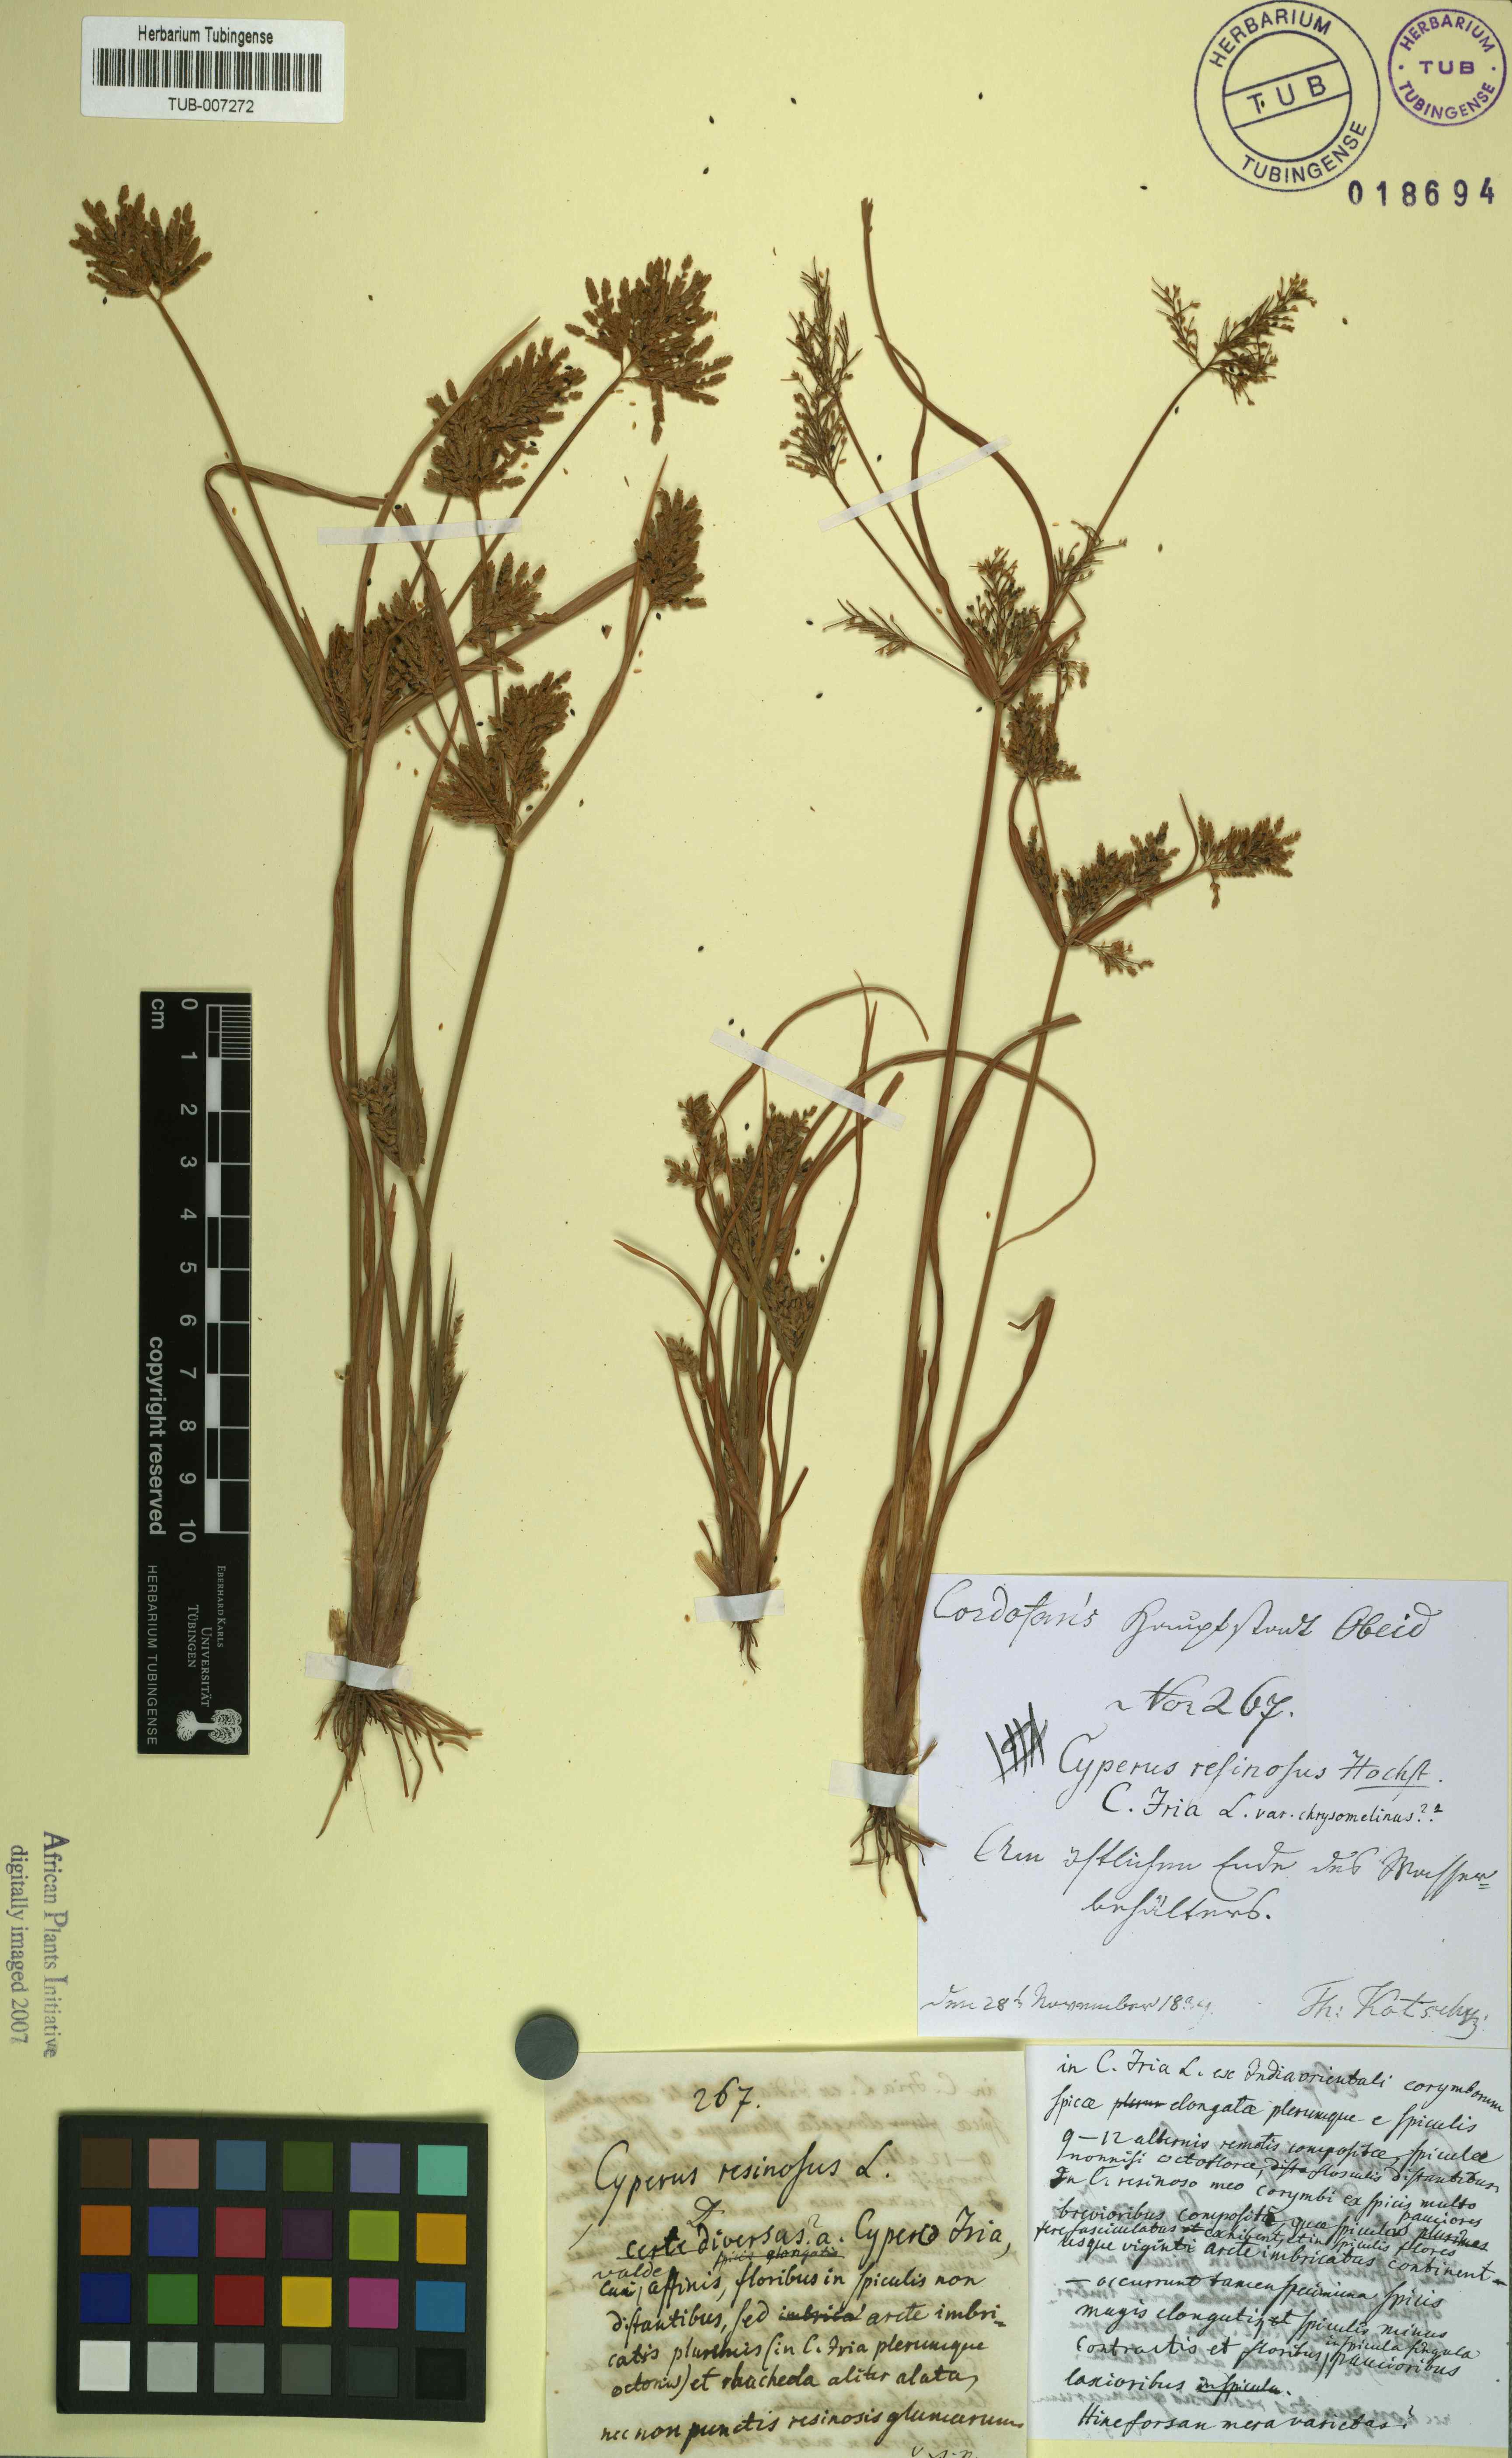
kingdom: Plantae
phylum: Tracheophyta
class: Liliopsida
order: Poales
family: Cyperaceae
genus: Cyperus
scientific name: Cyperus iria
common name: Ricefield flatsedge
